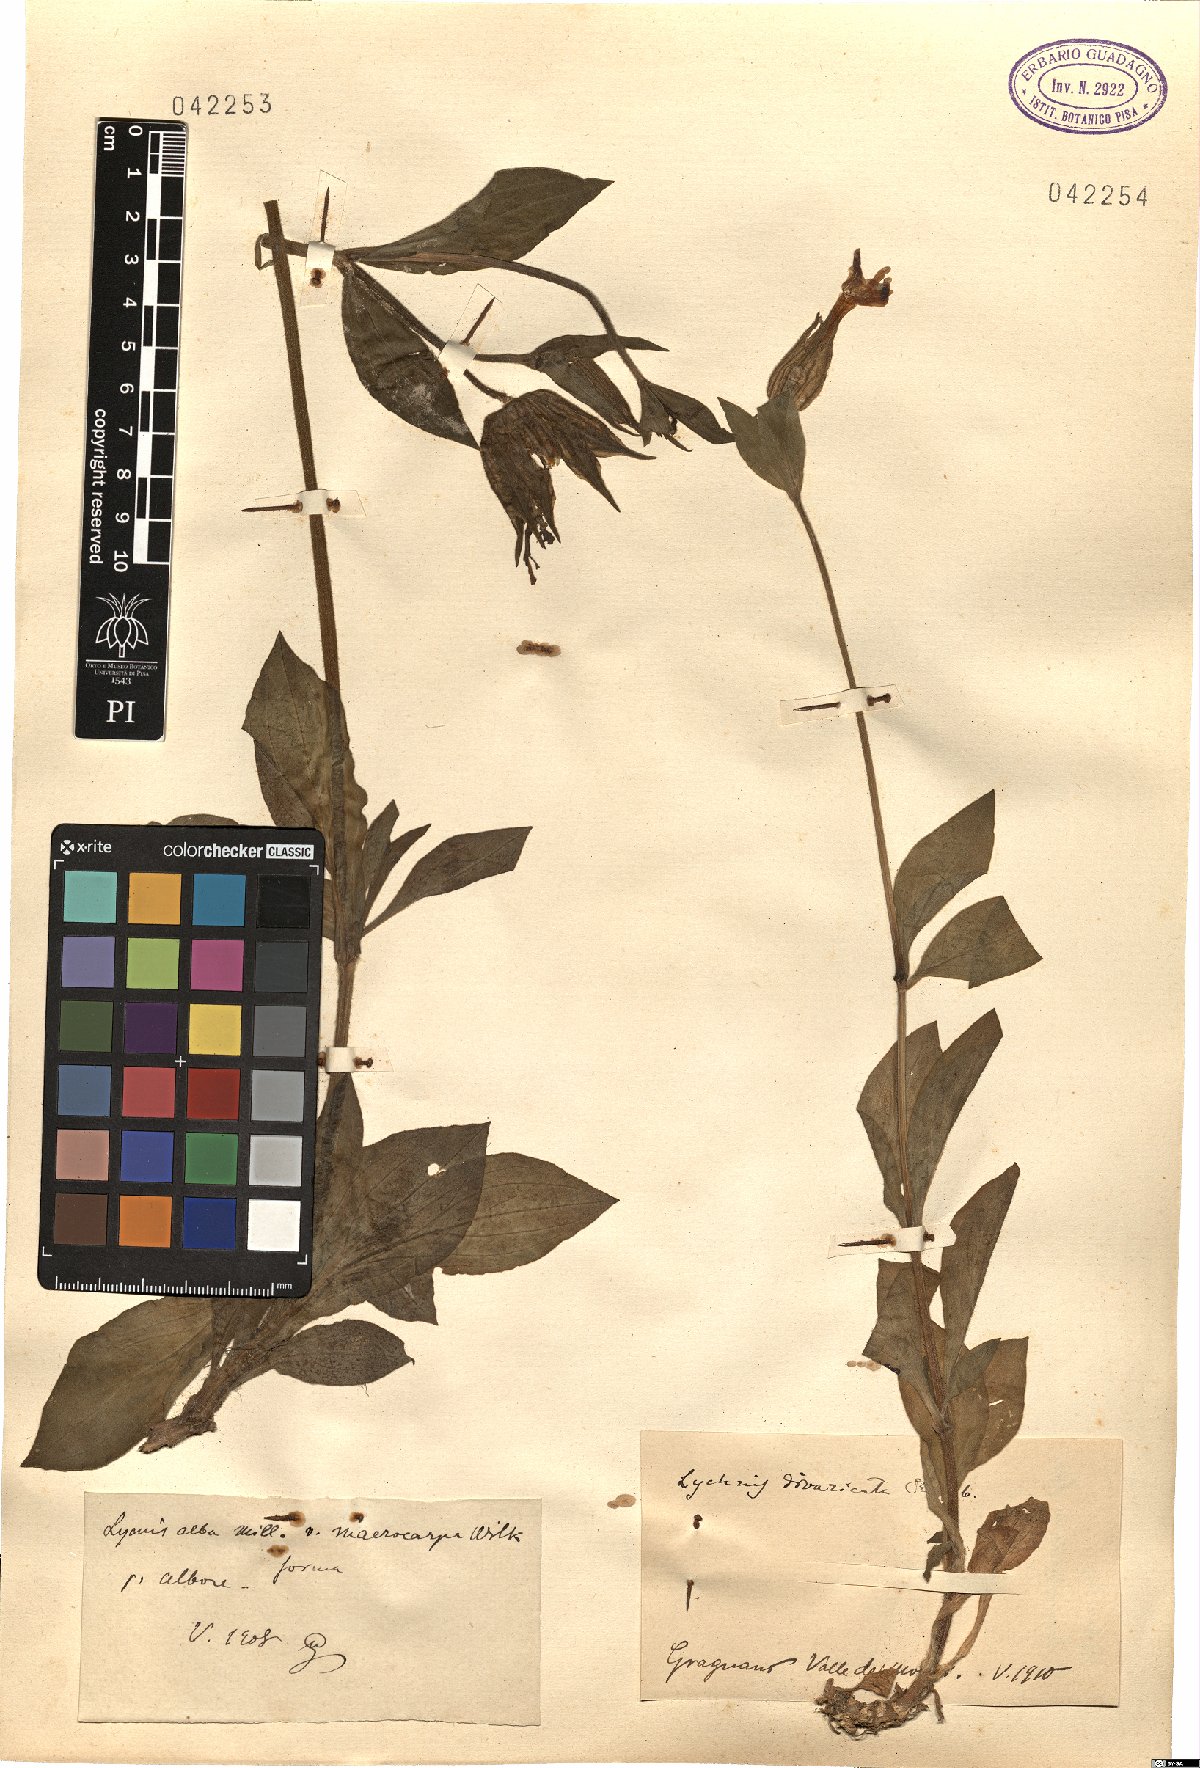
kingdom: Plantae
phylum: Tracheophyta
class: Magnoliopsida
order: Caryophyllales
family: Caryophyllaceae
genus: Silene
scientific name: Silene latifolia
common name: White campion
